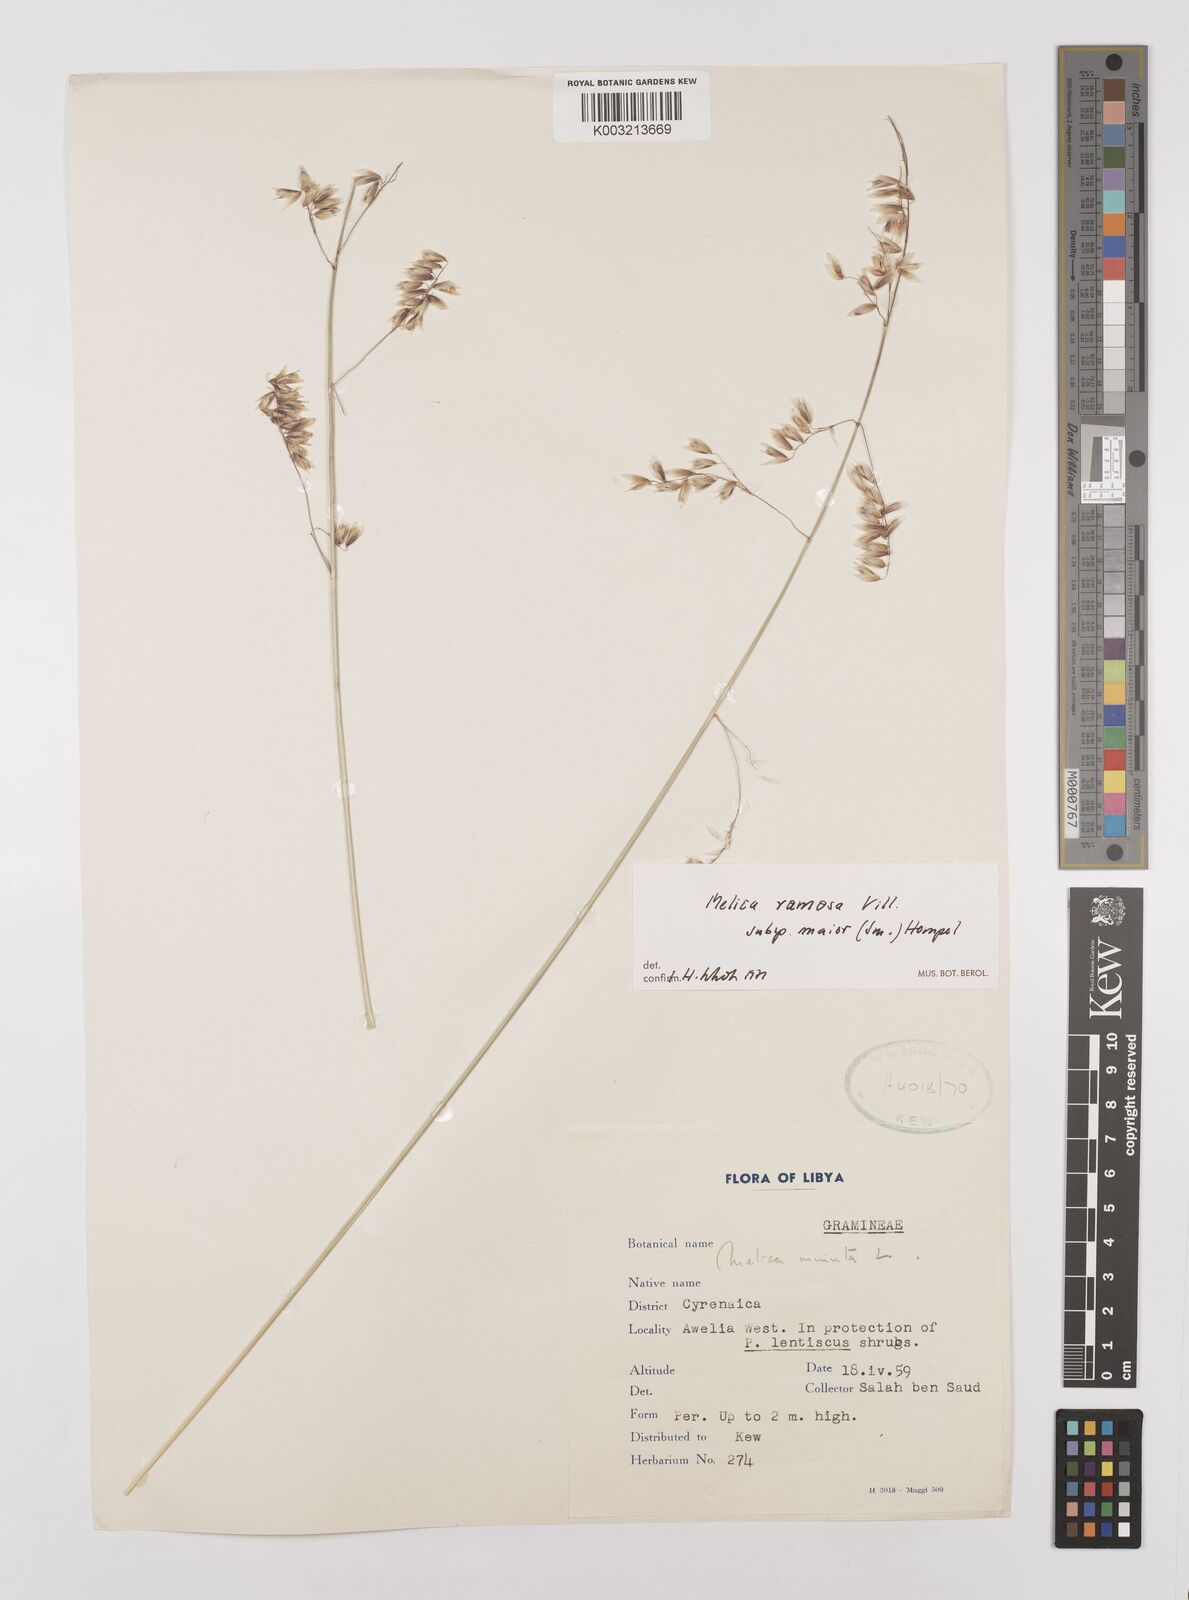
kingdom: Plantae
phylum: Tracheophyta
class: Liliopsida
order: Poales
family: Poaceae
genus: Melica
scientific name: Melica minuta
